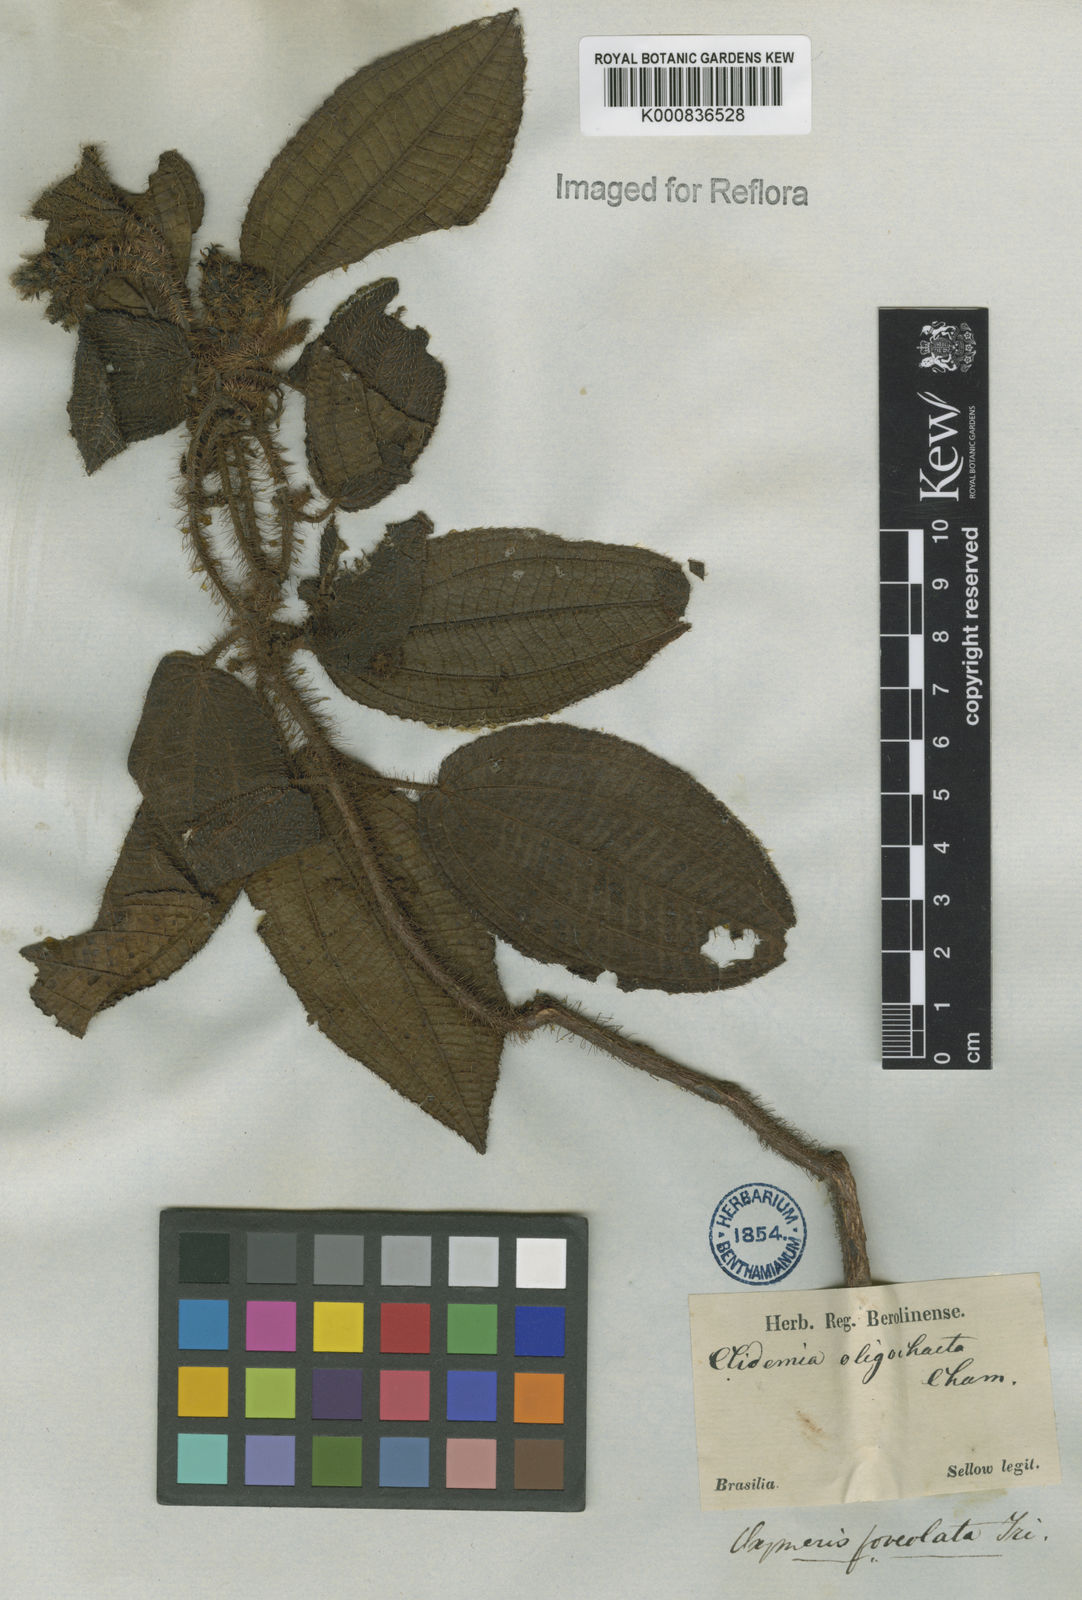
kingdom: Plantae
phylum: Tracheophyta
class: Magnoliopsida
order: Myrtales
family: Melastomataceae
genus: Miconia
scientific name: Miconia oligochaeta
